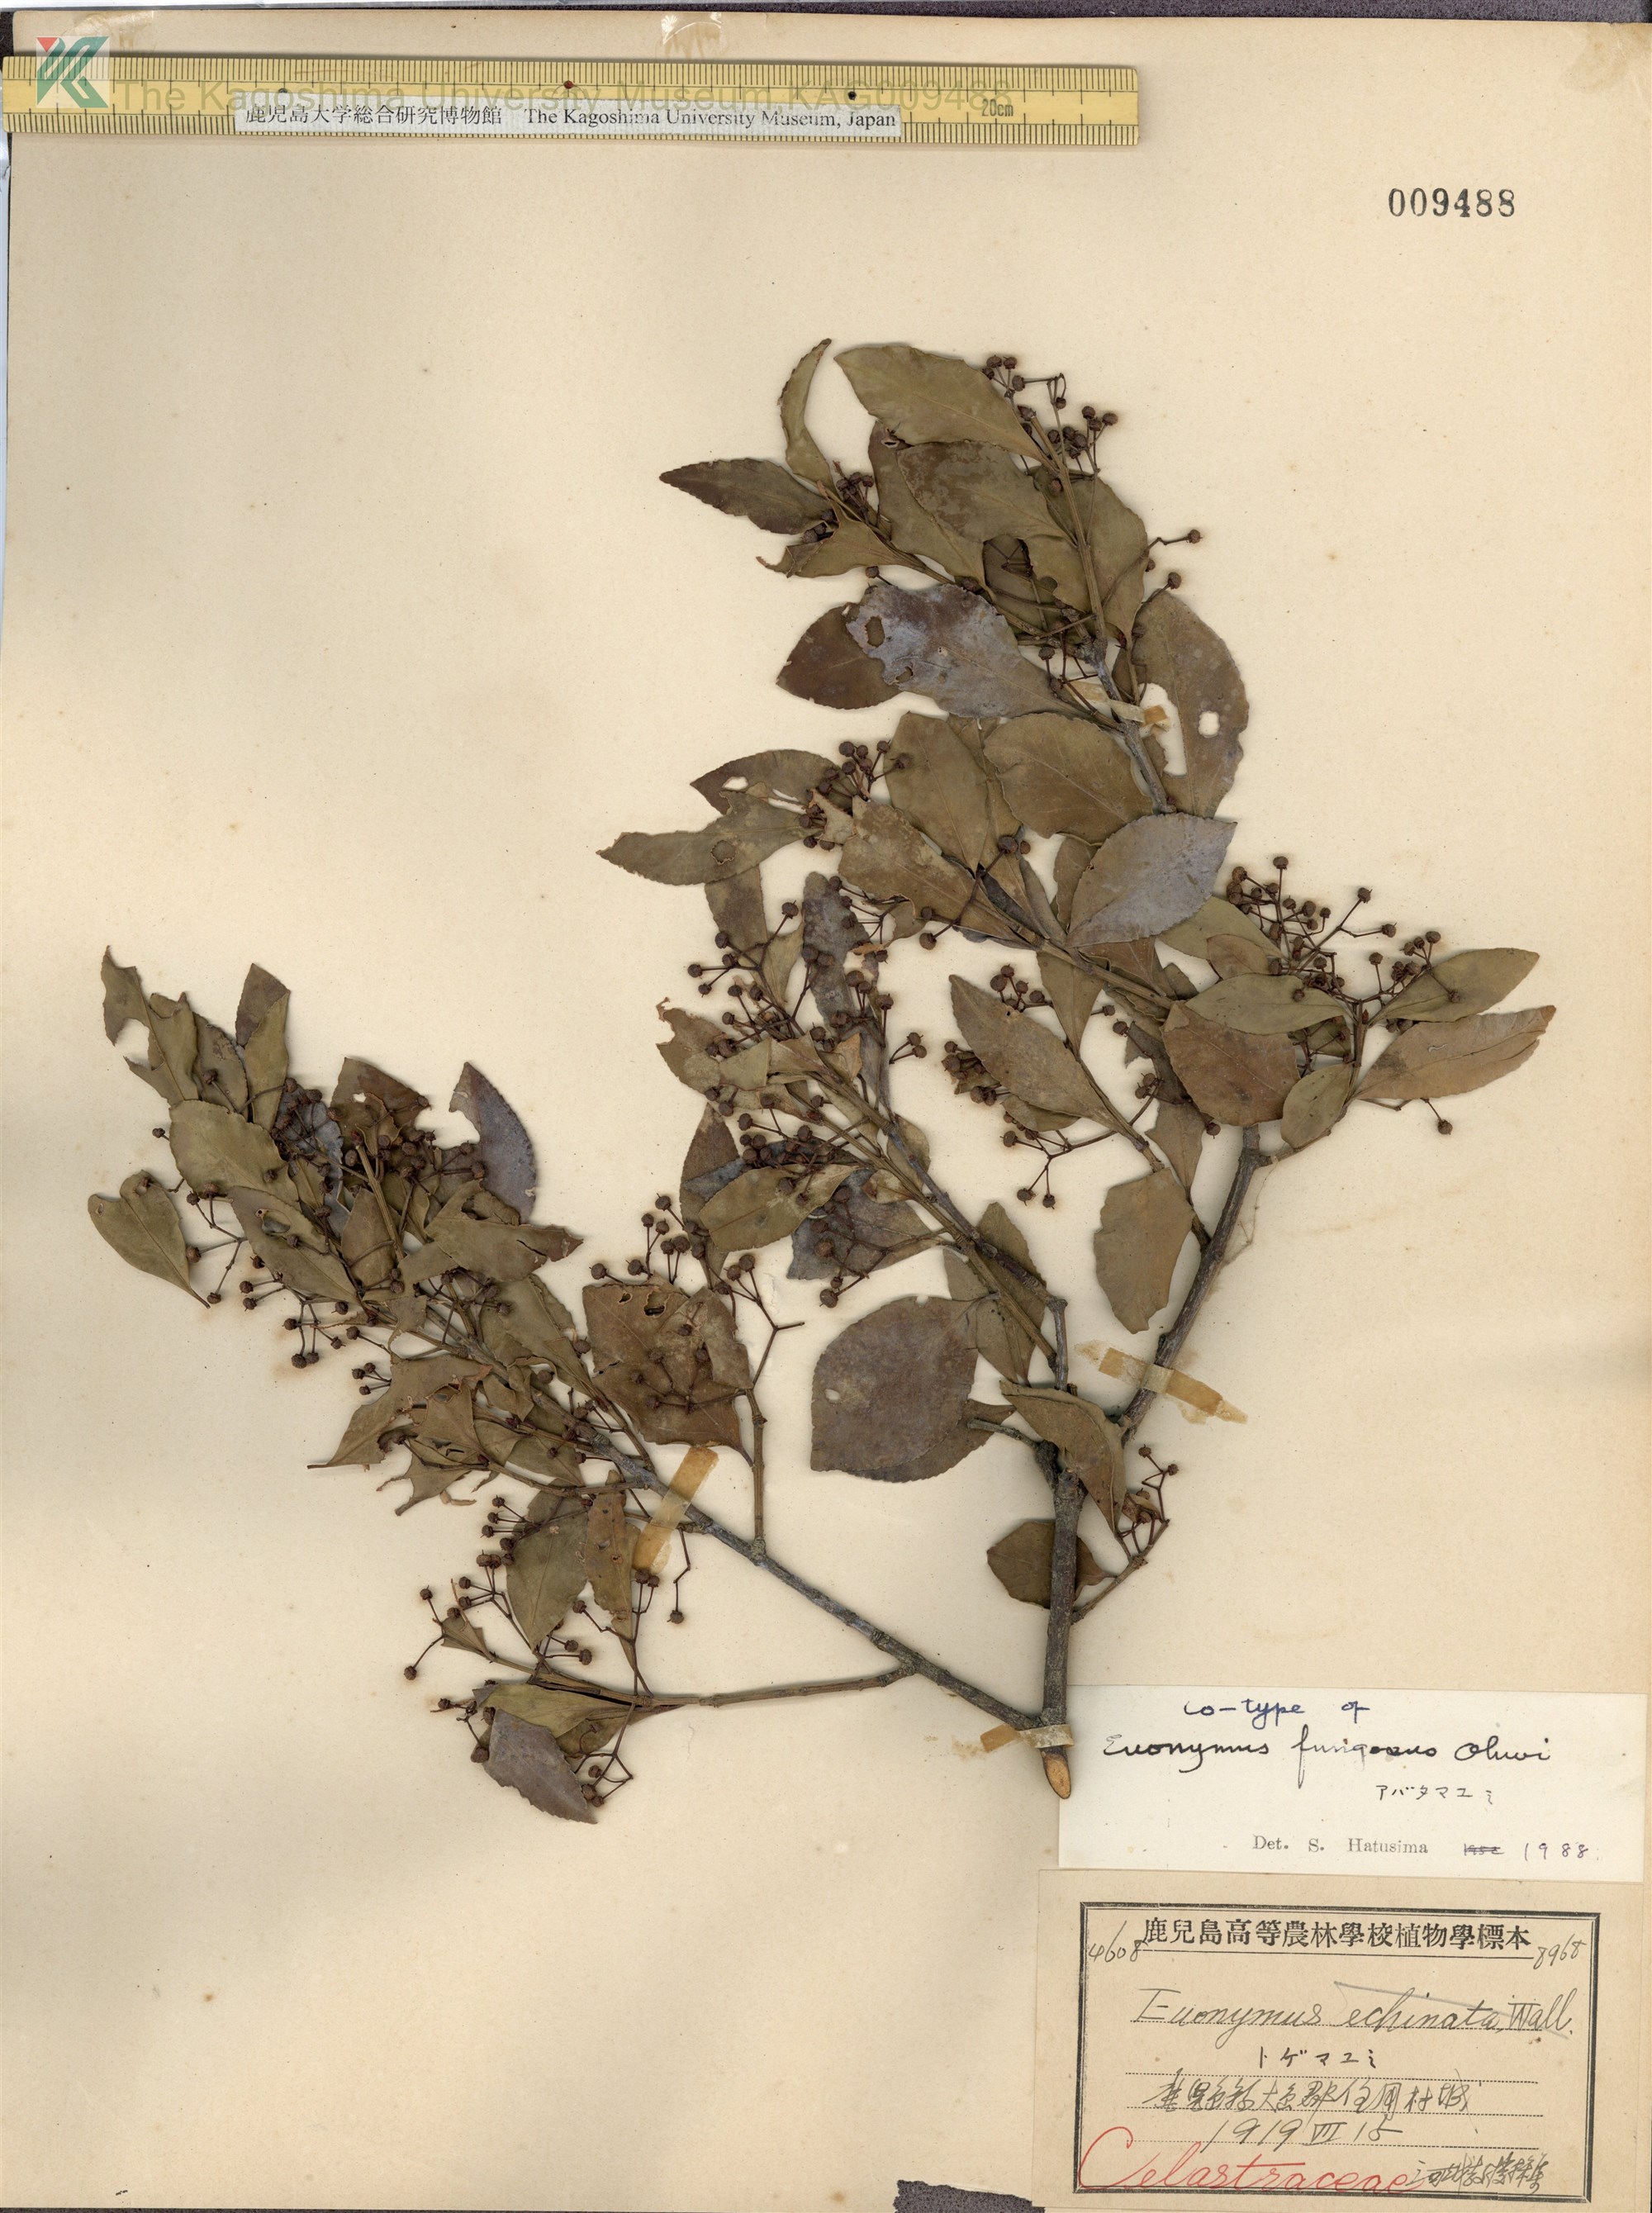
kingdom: Plantae
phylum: Tracheophyta
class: Magnoliopsida
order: Celastrales
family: Celastraceae
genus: Euonymus
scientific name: Euonymus echinatus
